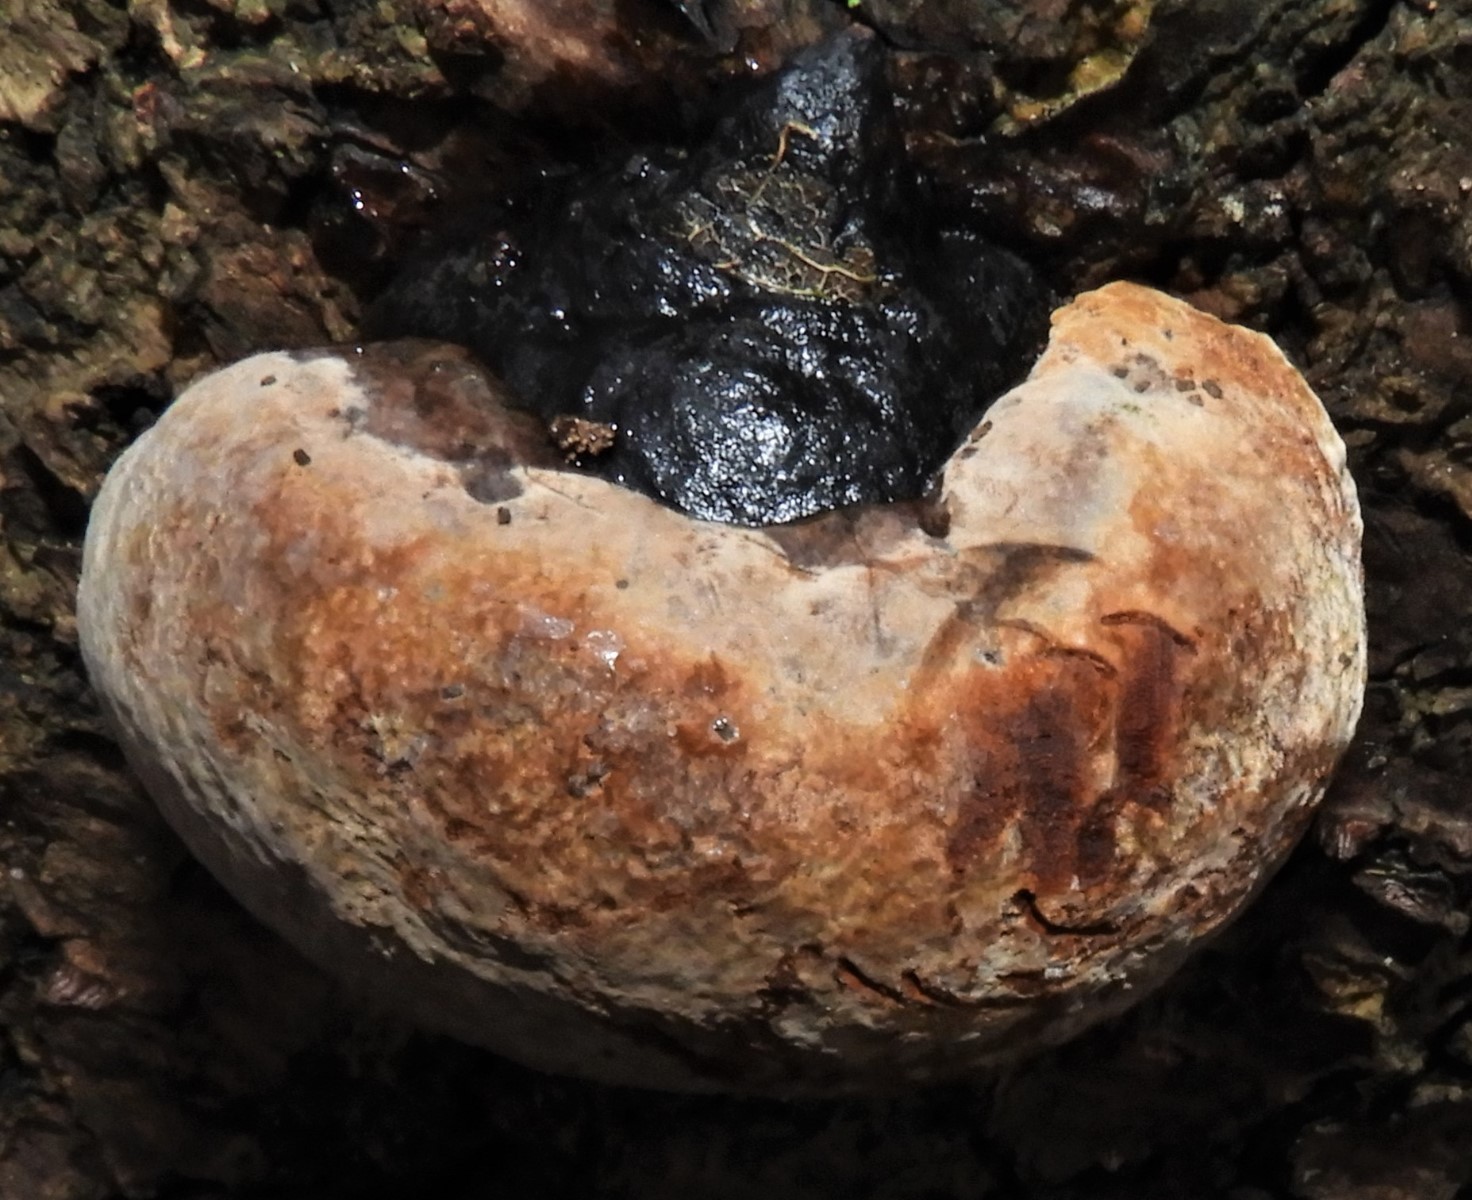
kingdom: Fungi
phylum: Basidiomycota
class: Agaricomycetes
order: Polyporales
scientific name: Polyporales
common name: poresvampordenen
